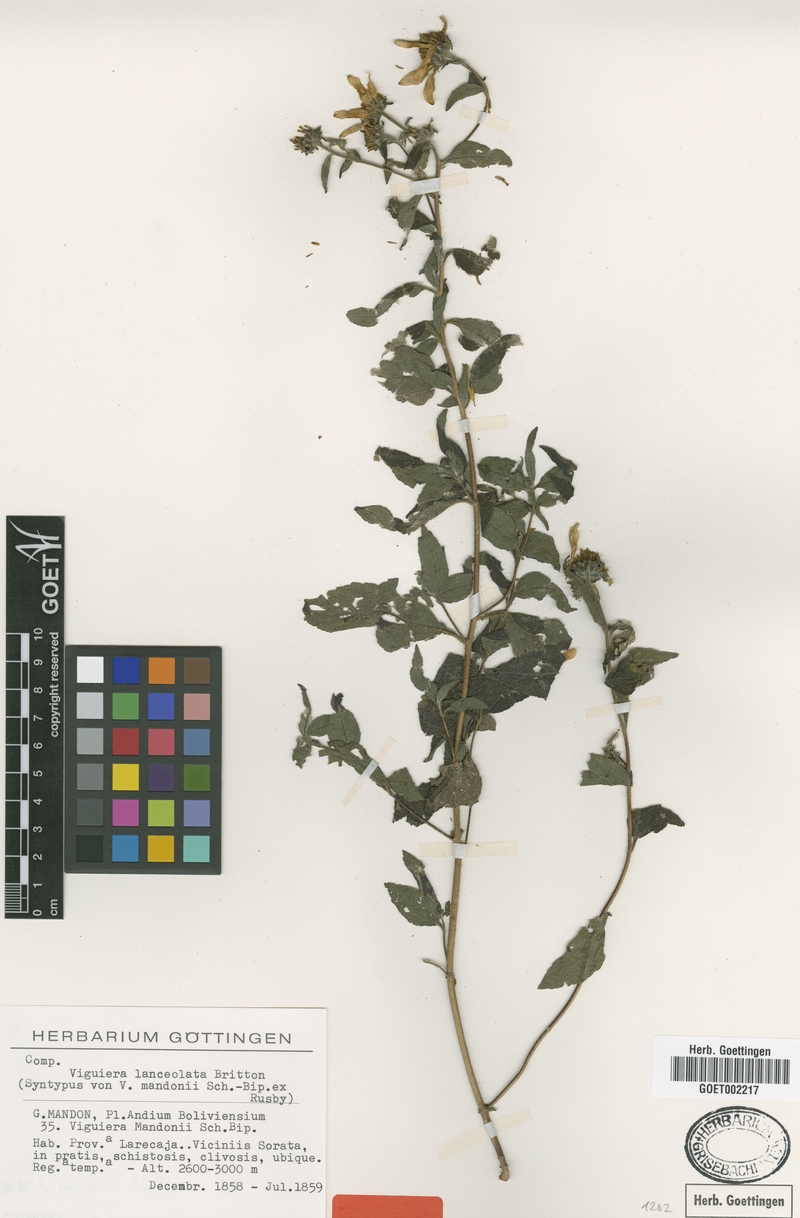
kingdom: Plantae
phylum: Tracheophyta
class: Magnoliopsida
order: Asterales
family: Asteraceae
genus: Aldama
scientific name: Aldama lanceolata
